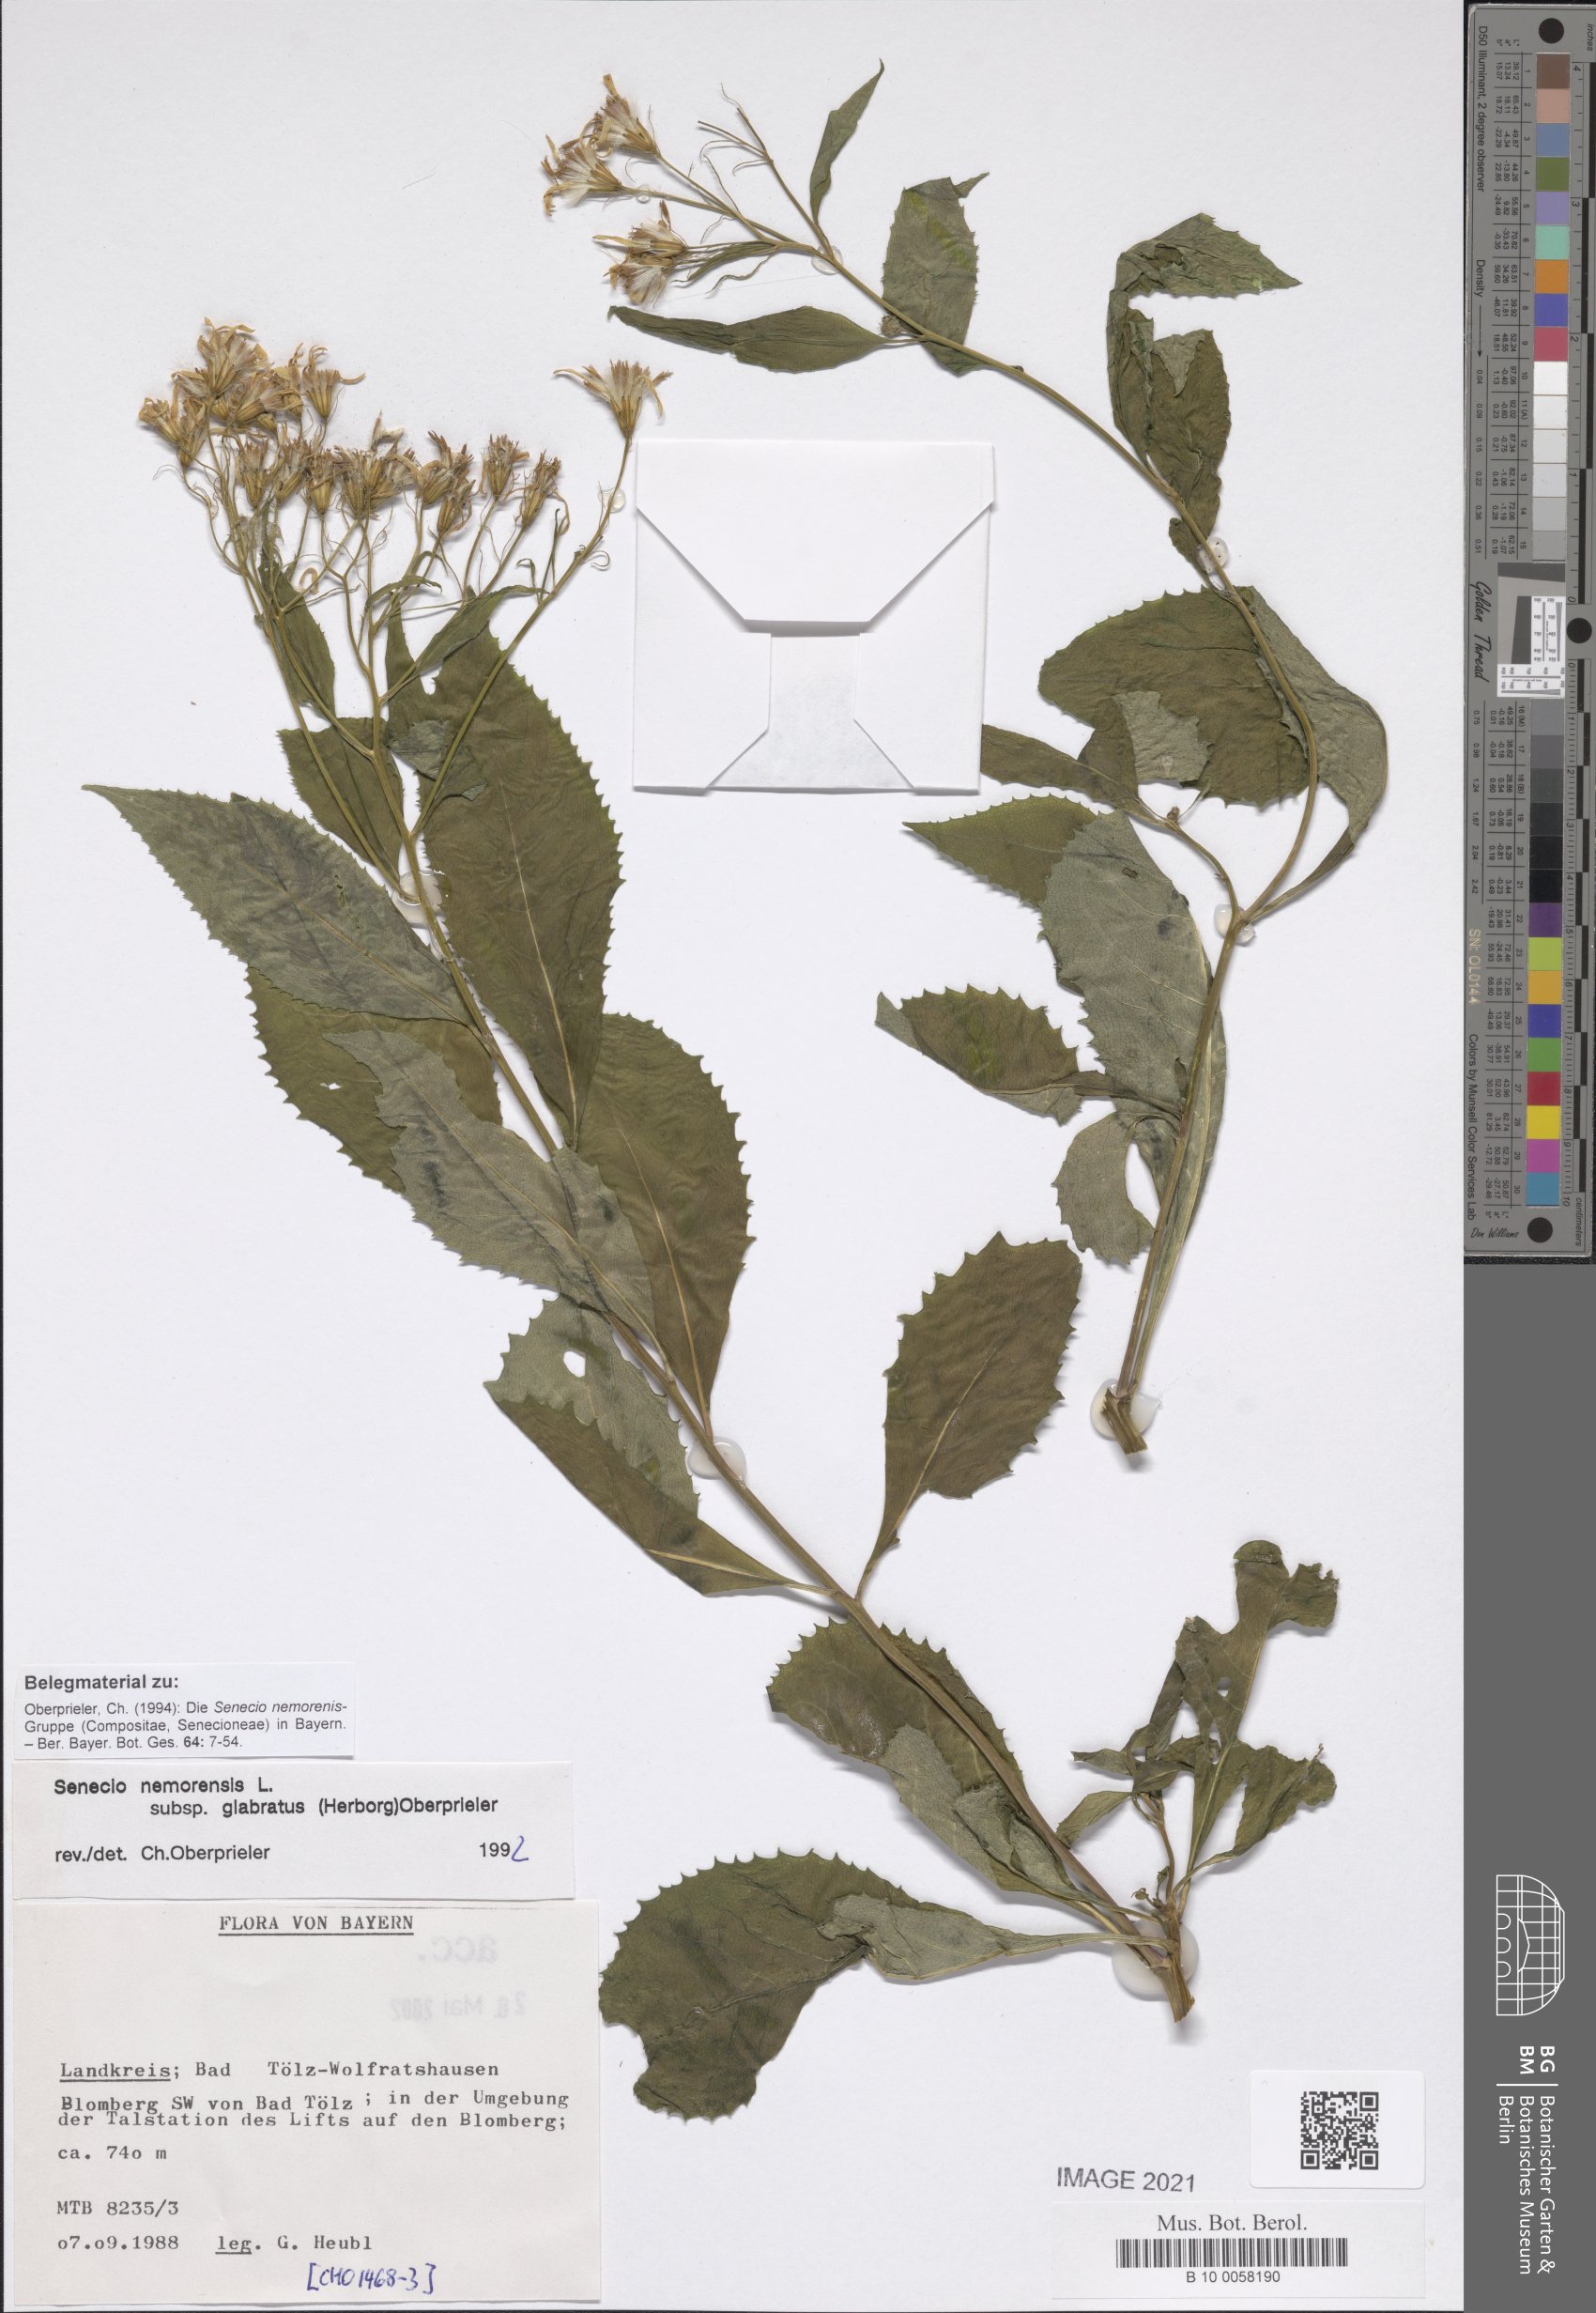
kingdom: Plantae
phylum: Tracheophyta
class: Magnoliopsida
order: Asterales
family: Asteraceae
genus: Senecio
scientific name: Senecio germanicus
